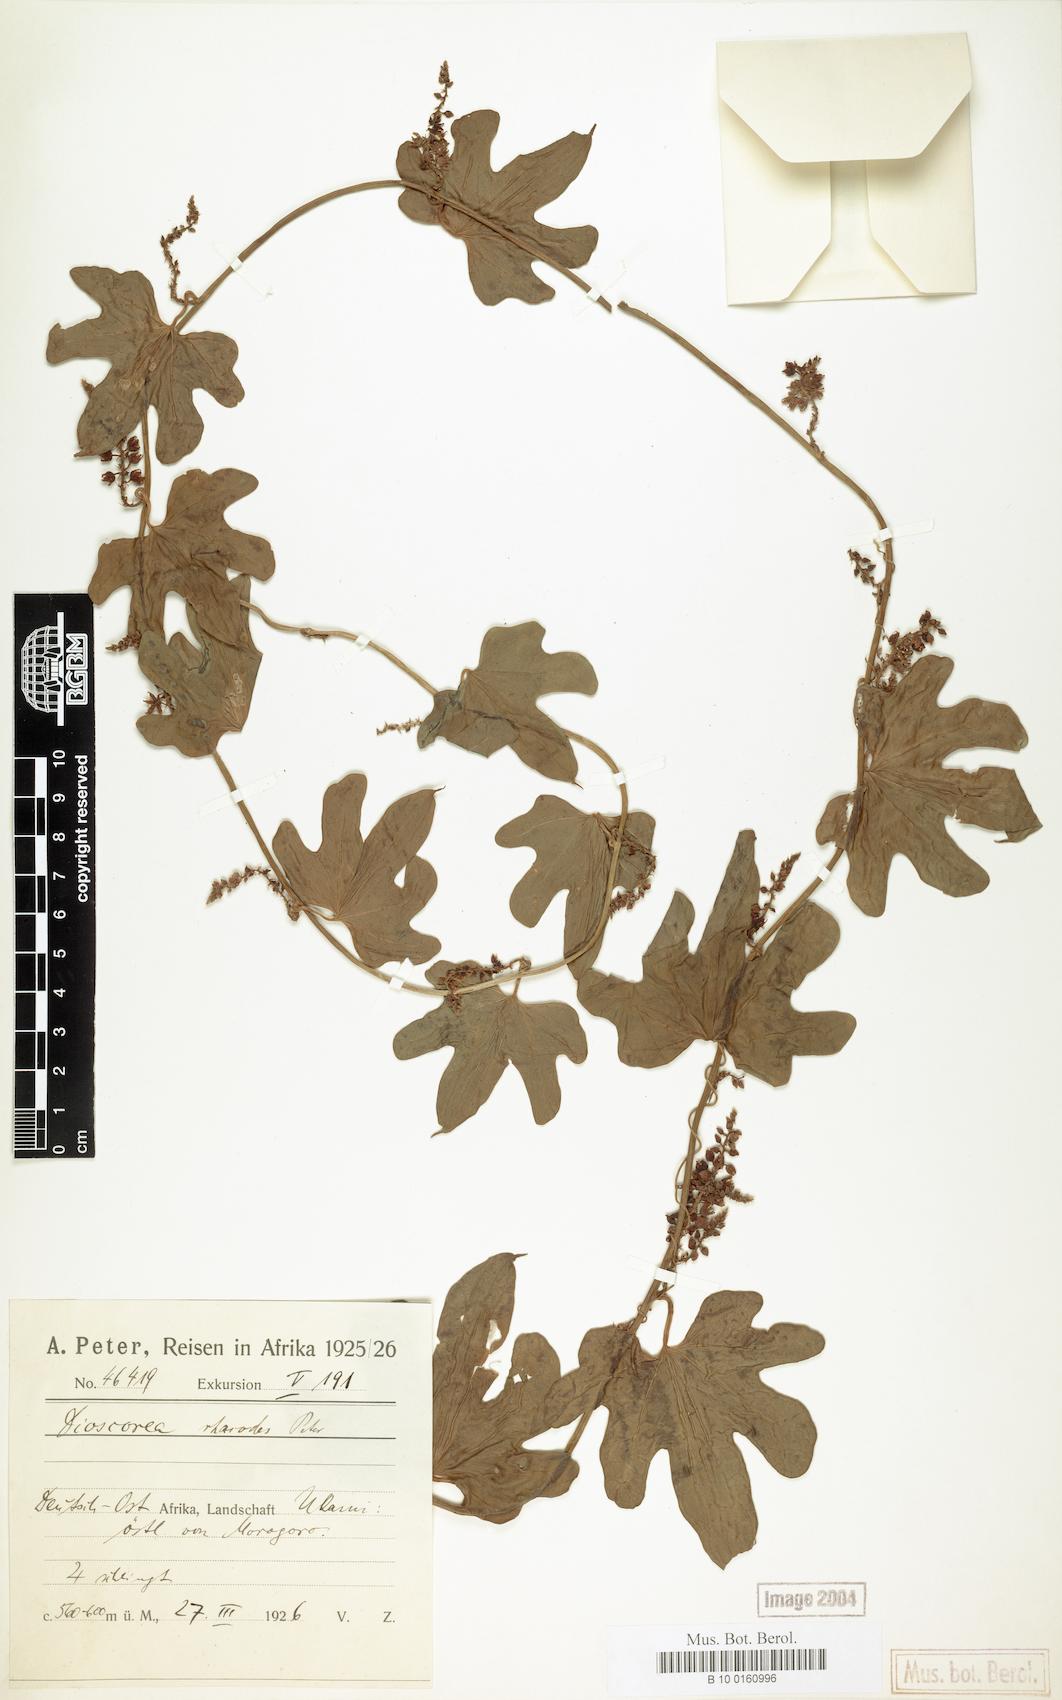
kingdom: Plantae
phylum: Tracheophyta
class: Liliopsida
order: Dioscoreales
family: Dioscoreaceae
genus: Dioscorea
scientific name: Dioscorea buchananii
